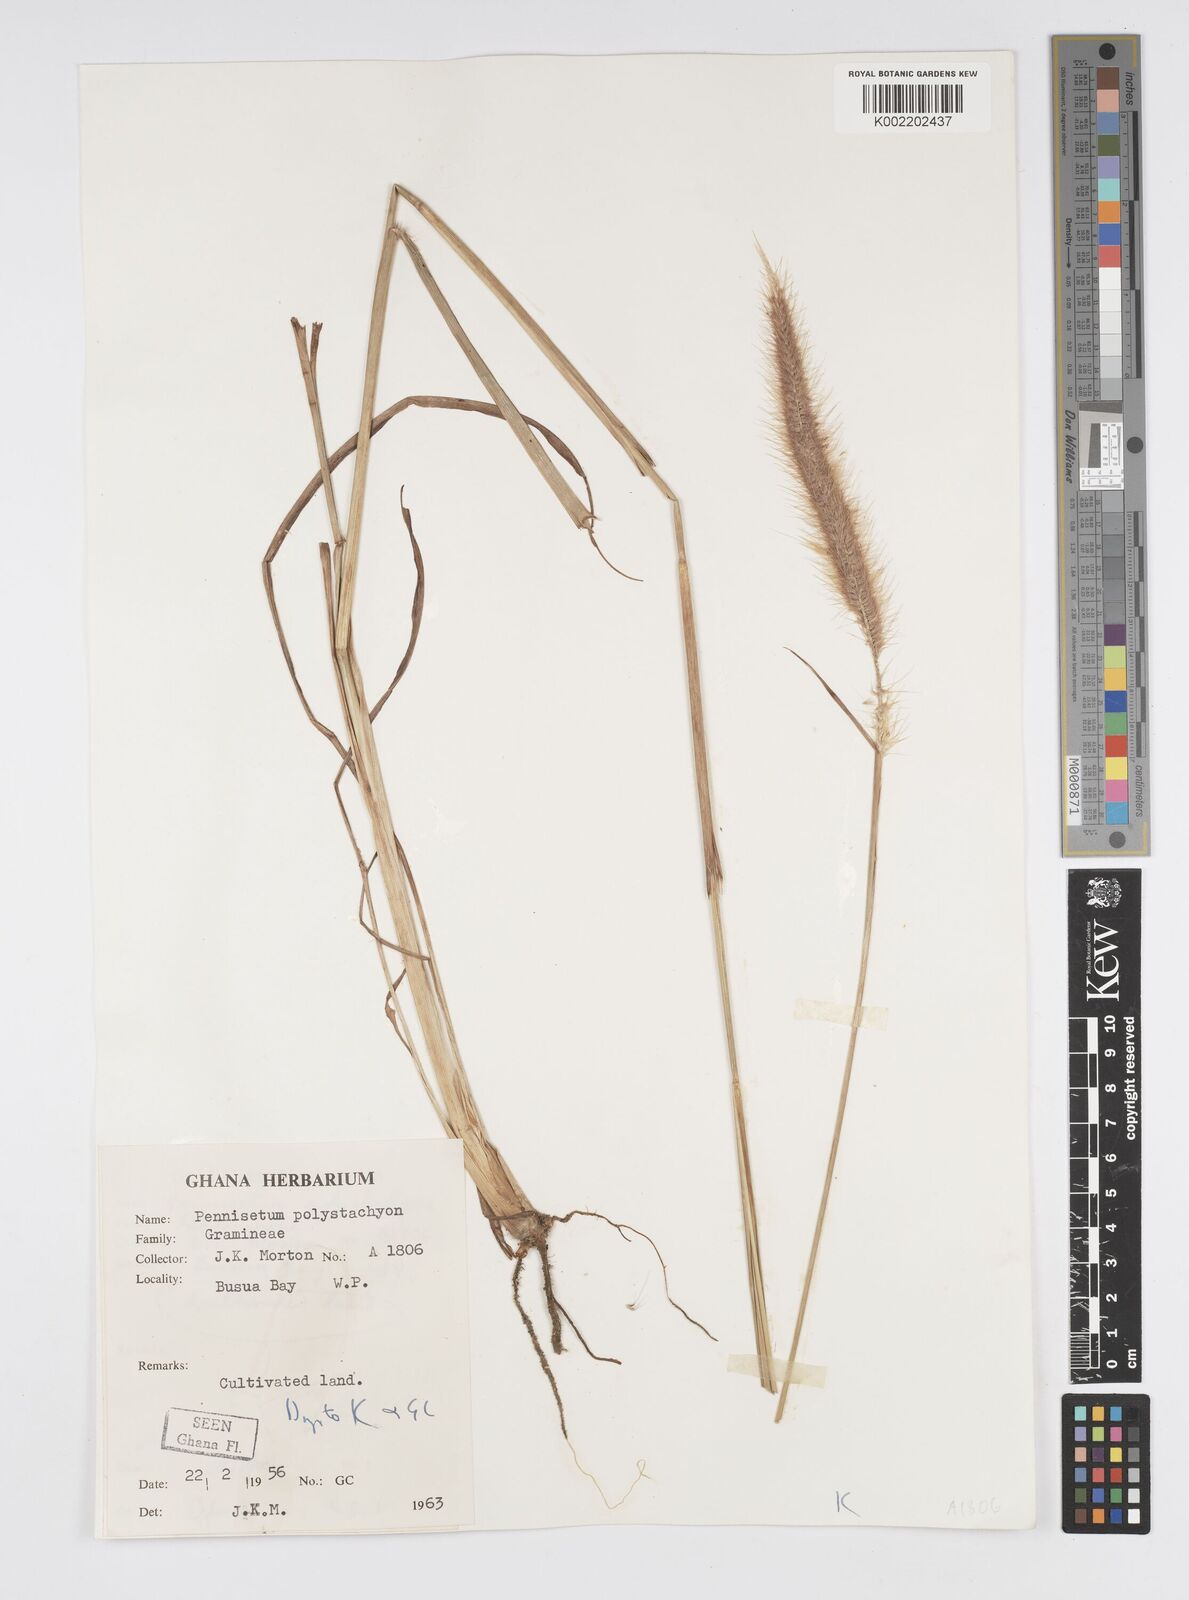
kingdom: Plantae
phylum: Tracheophyta
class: Liliopsida
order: Poales
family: Poaceae
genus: Setaria
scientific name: Setaria parviflora
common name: Knotroot bristle-grass
